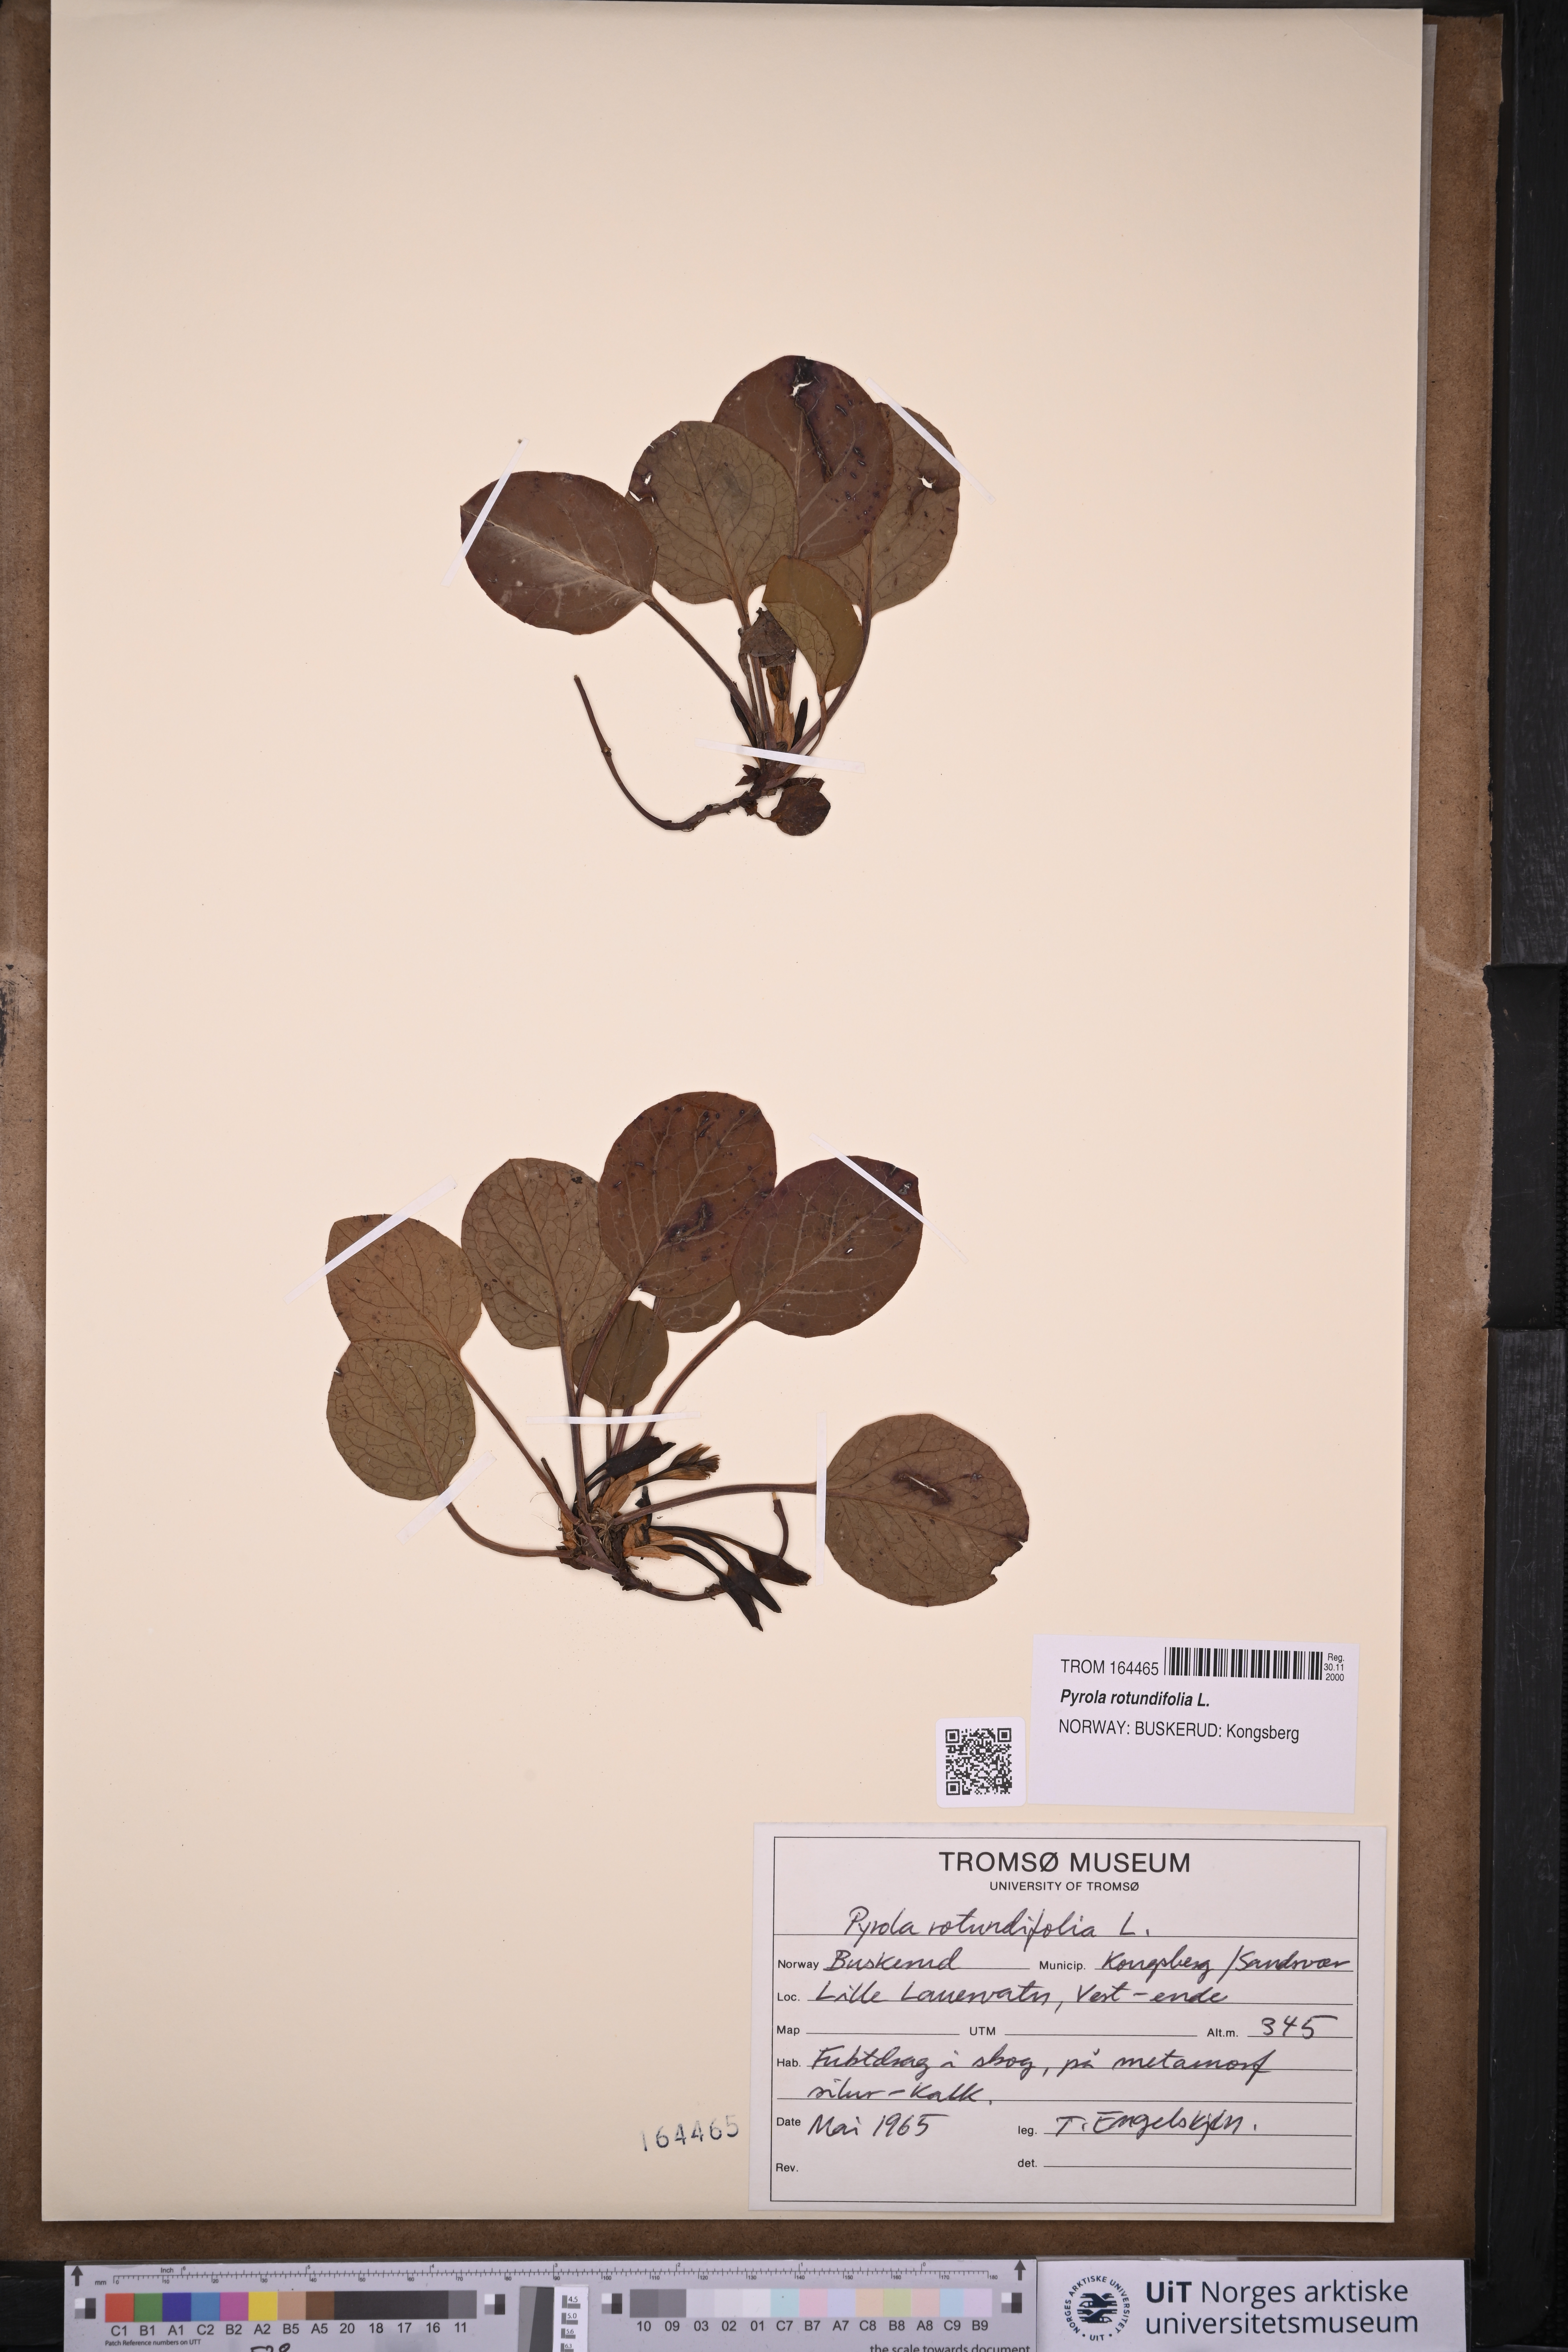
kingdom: Plantae
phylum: Tracheophyta
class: Magnoliopsida
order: Ericales
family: Ericaceae
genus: Pyrola
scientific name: Pyrola rotundifolia
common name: Round-leaved wintergreen
